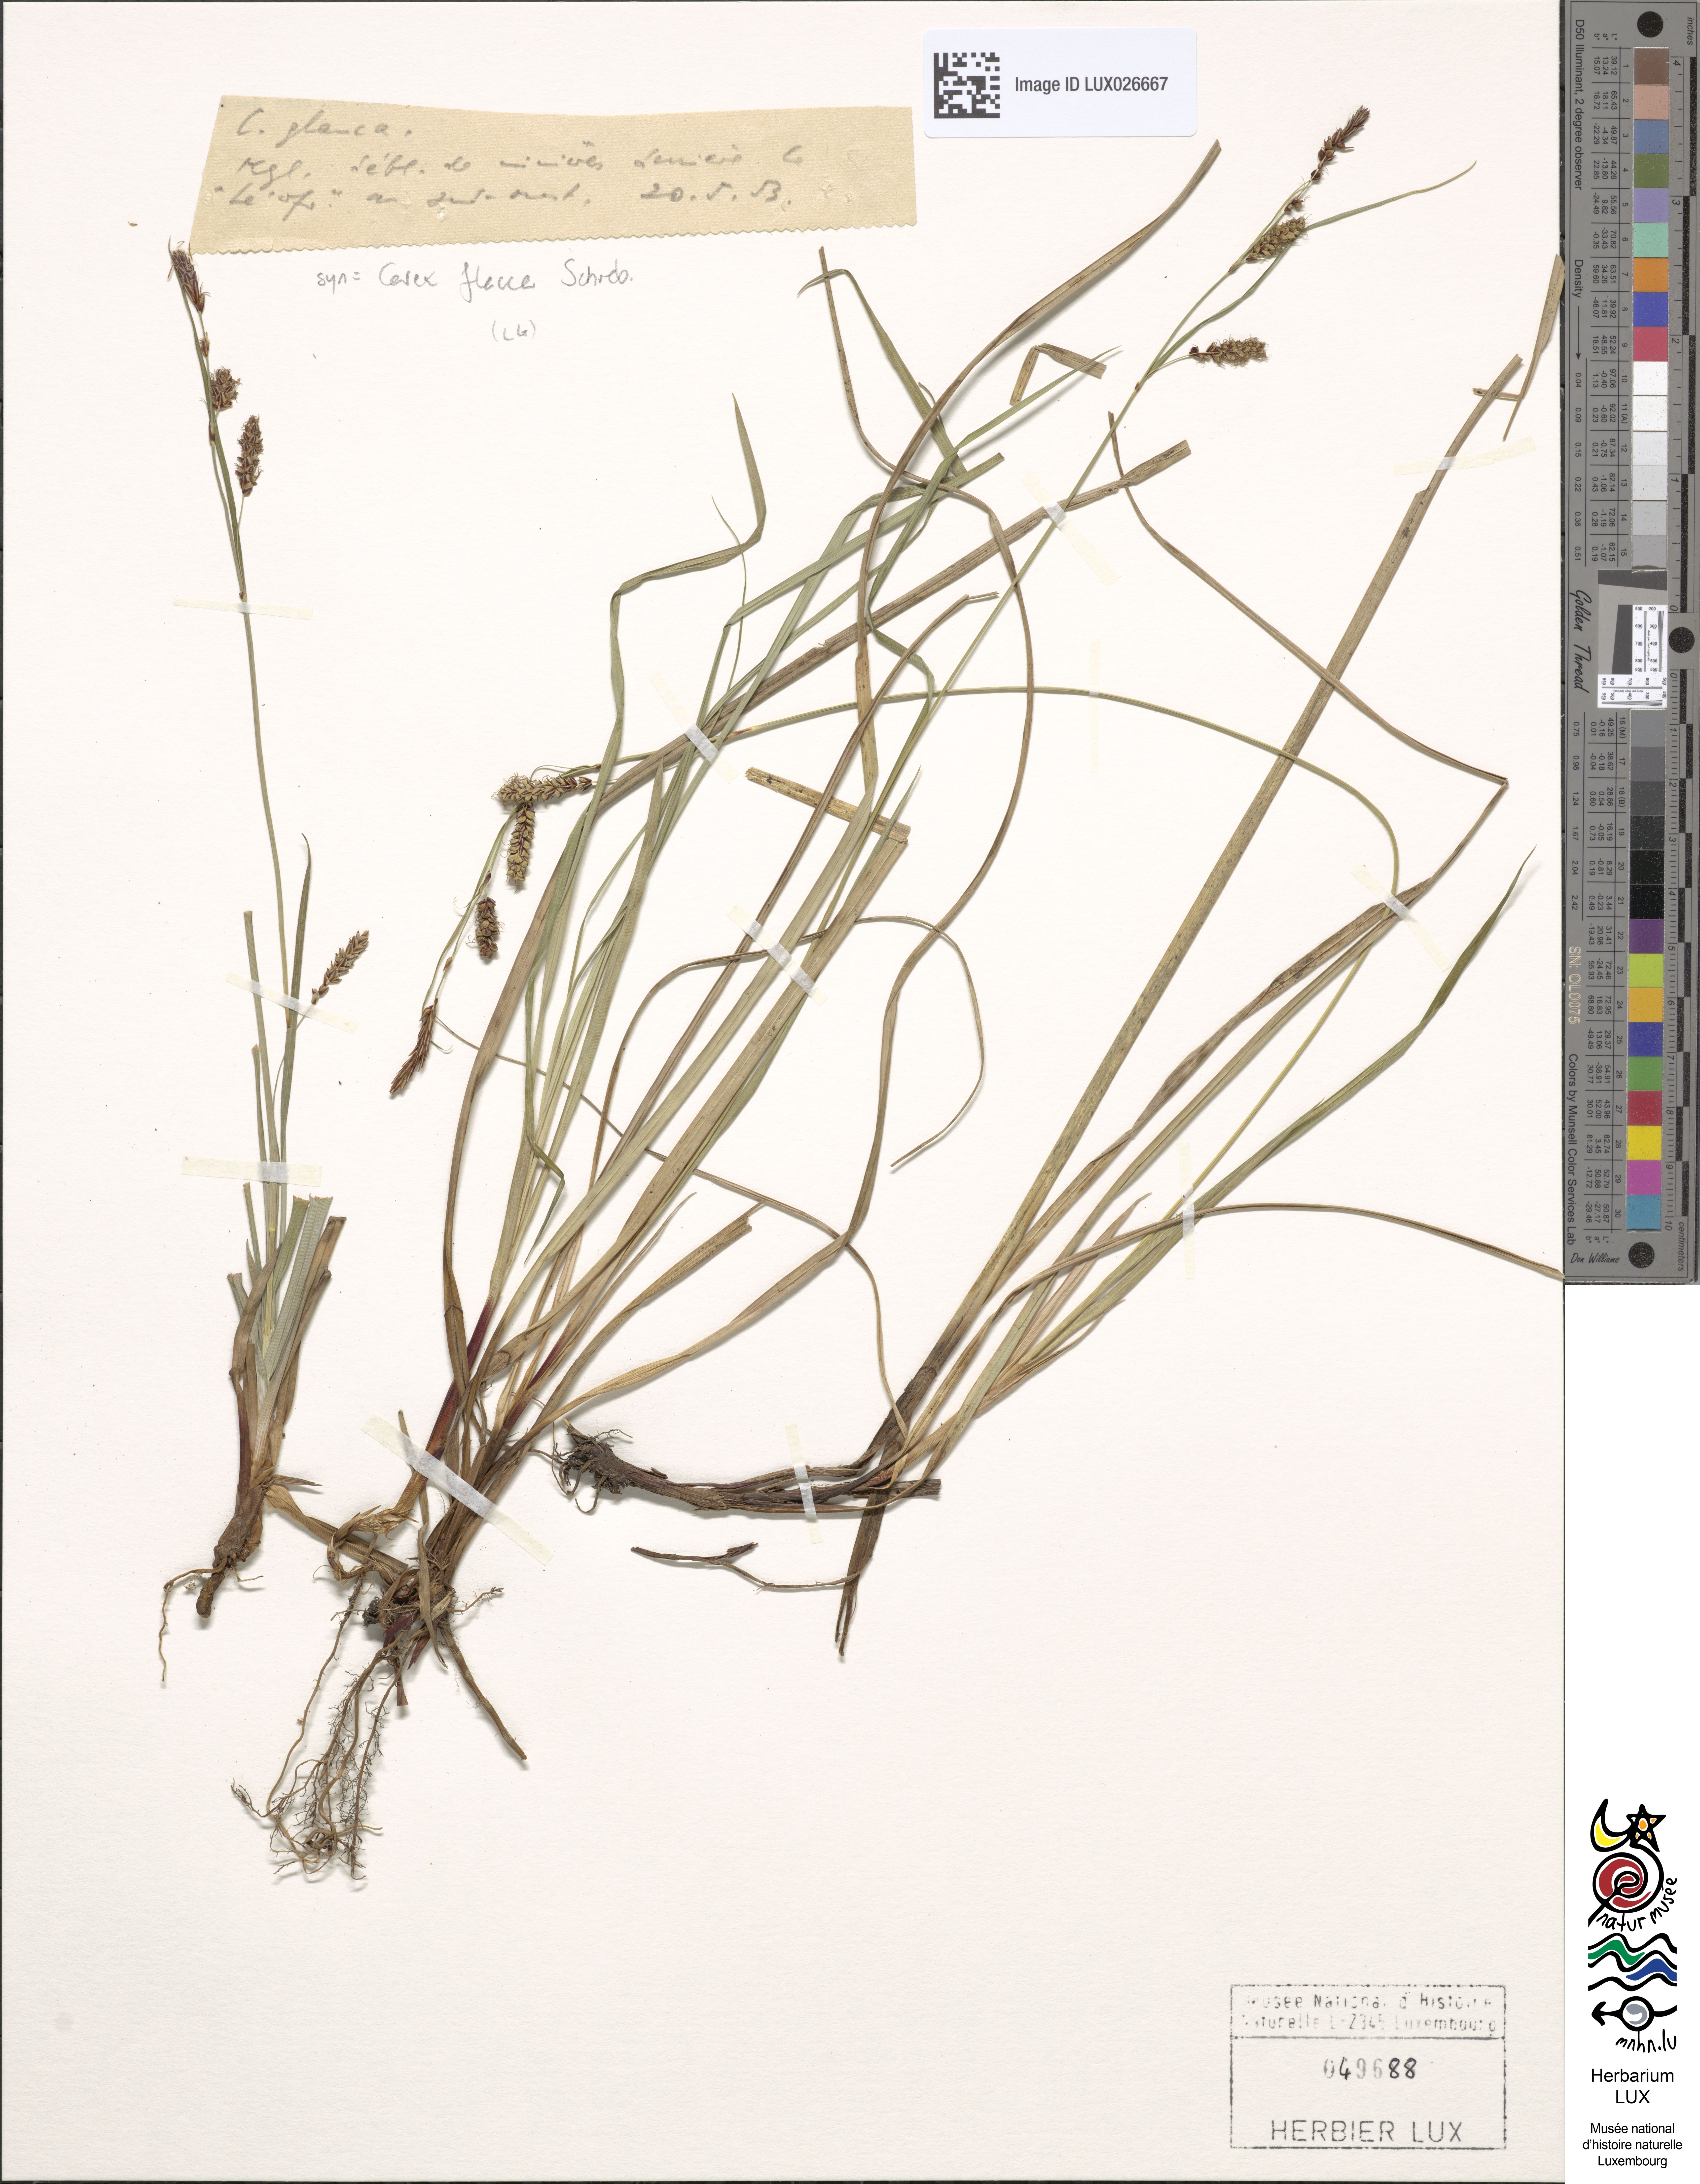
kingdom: Plantae
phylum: Tracheophyta
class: Liliopsida
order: Poales
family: Cyperaceae
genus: Carex
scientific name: Carex flacca
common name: Glaucous sedge
